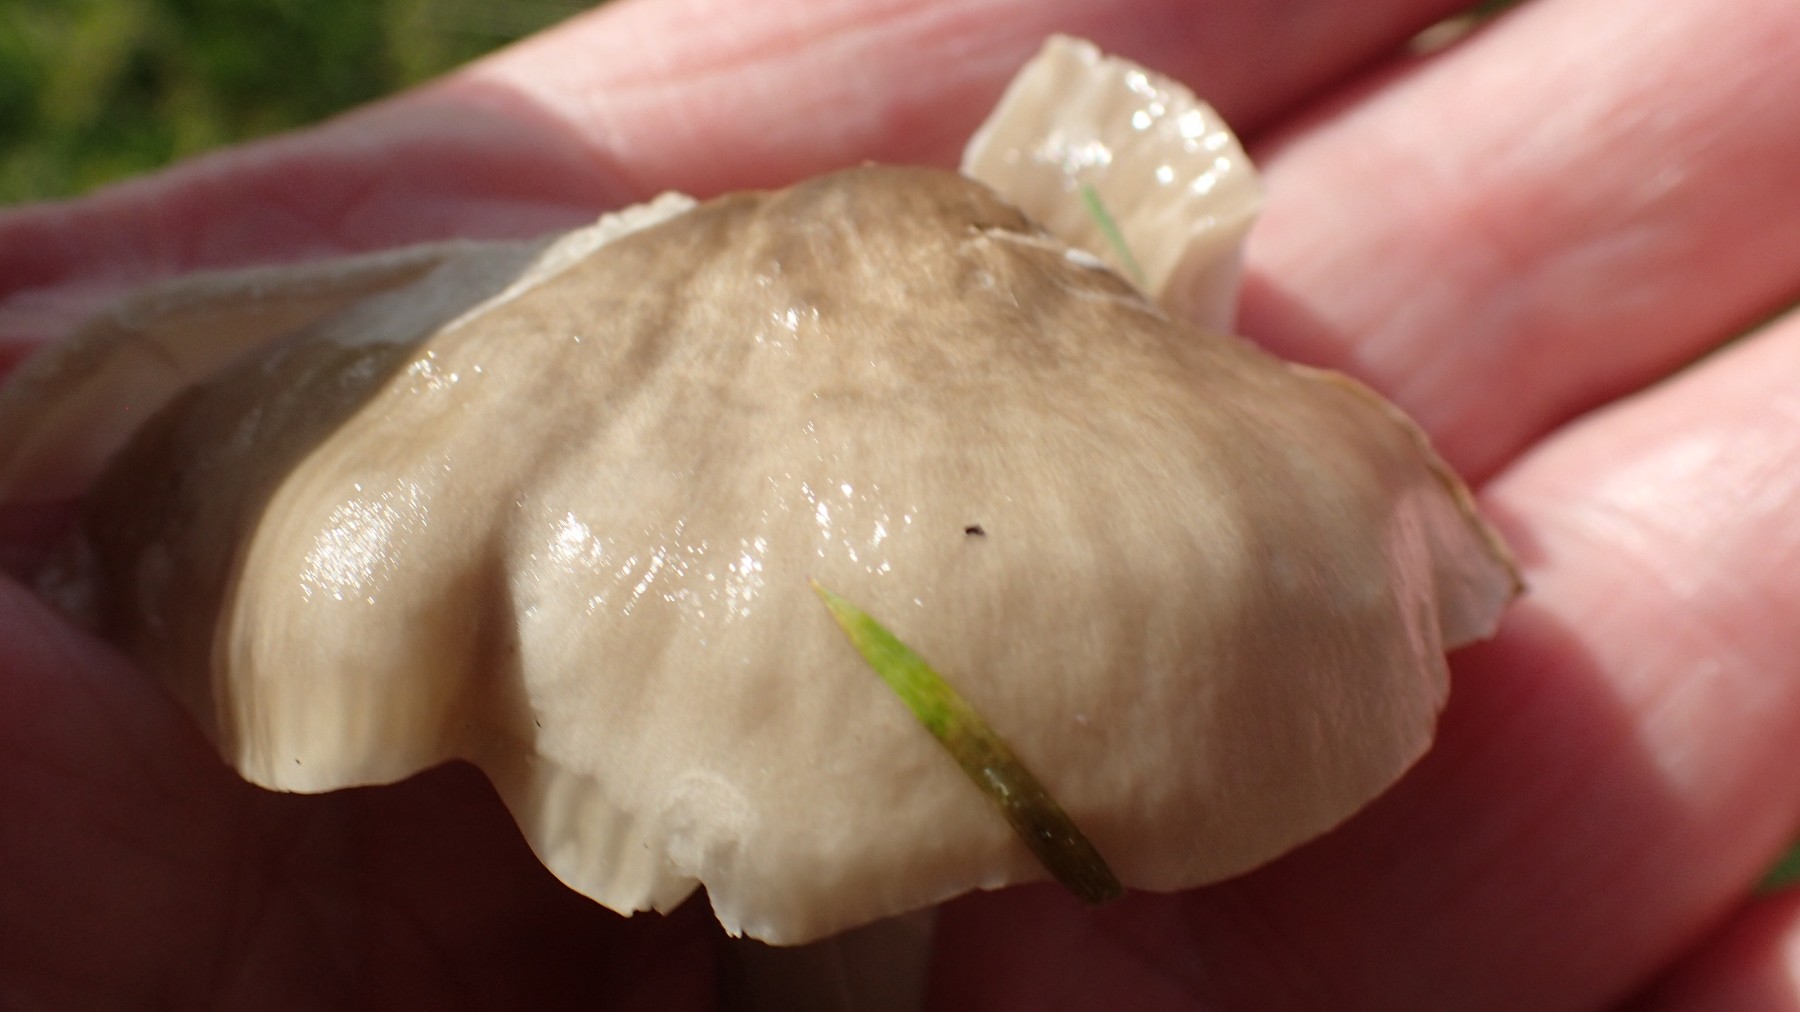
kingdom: Fungi
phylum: Basidiomycota
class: Agaricomycetes
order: Agaricales
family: Hygrophoraceae
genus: Gliophorus
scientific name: Gliophorus irrigatus
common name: slimet vokshat
